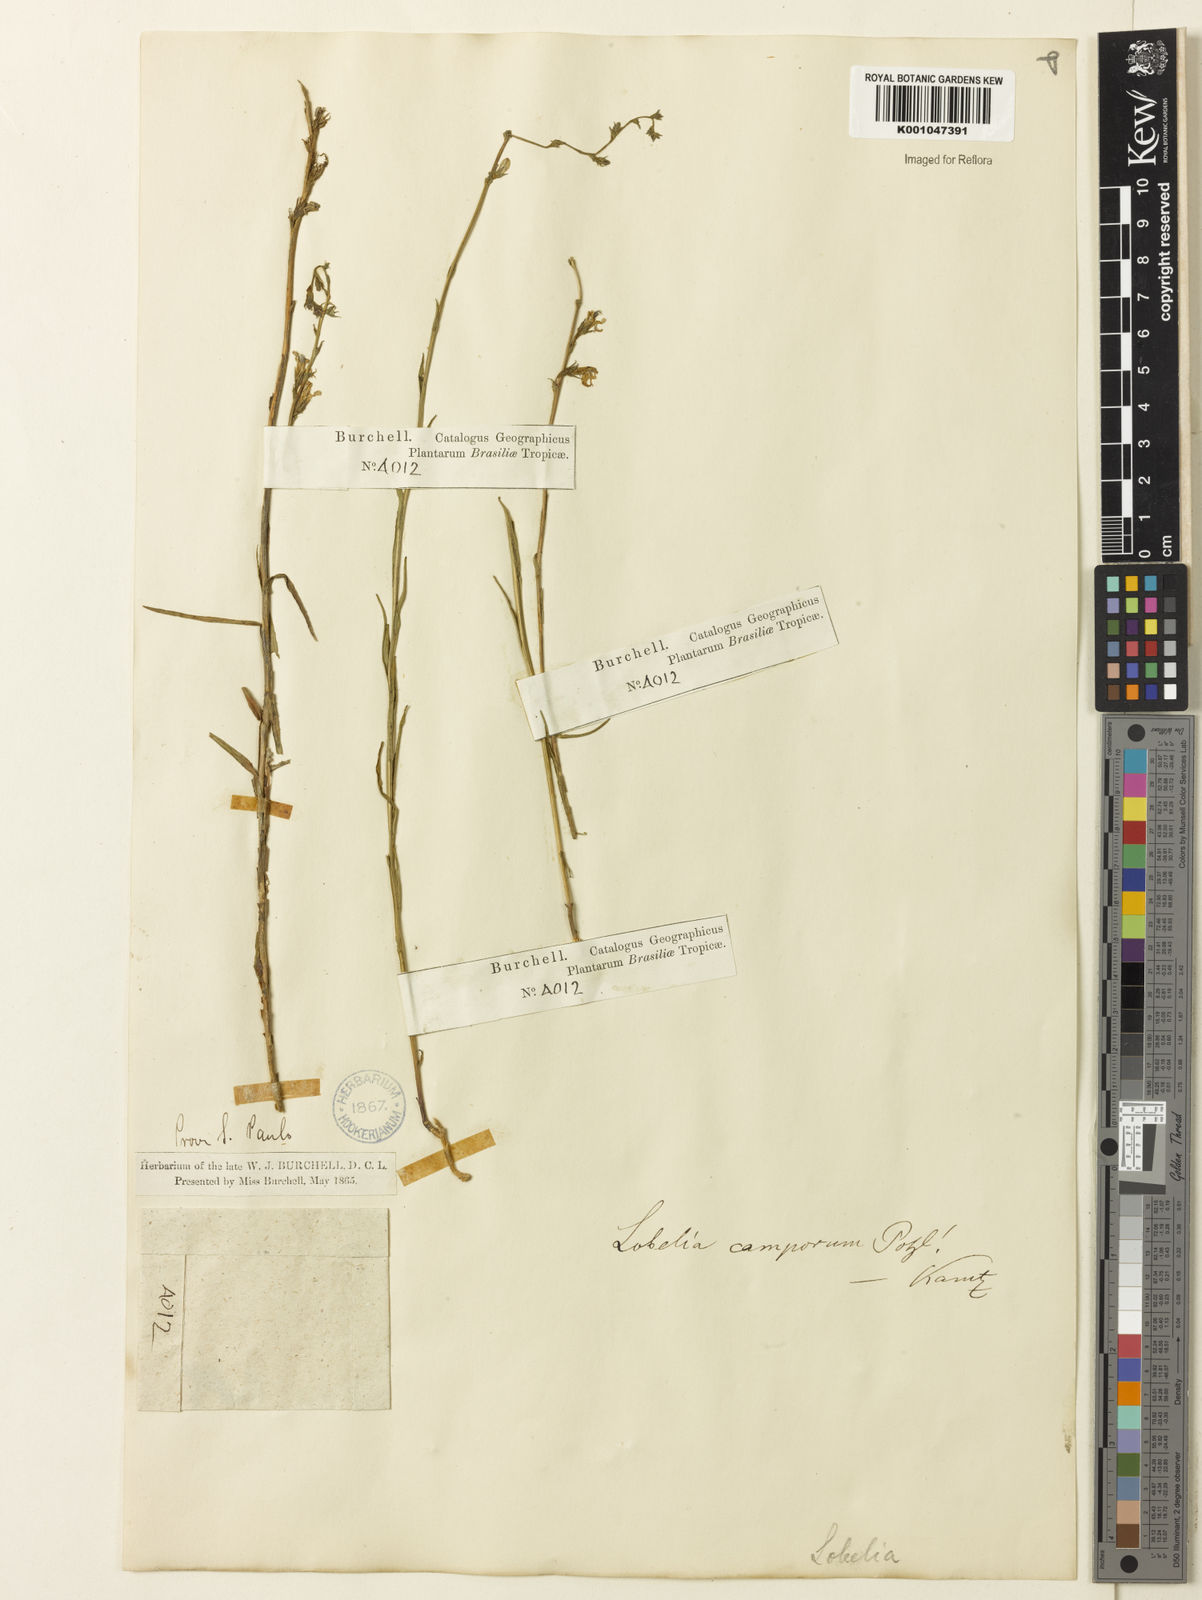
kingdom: Plantae
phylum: Tracheophyta
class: Magnoliopsida
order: Asterales
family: Campanulaceae
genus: Lobelia
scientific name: Lobelia camporum
